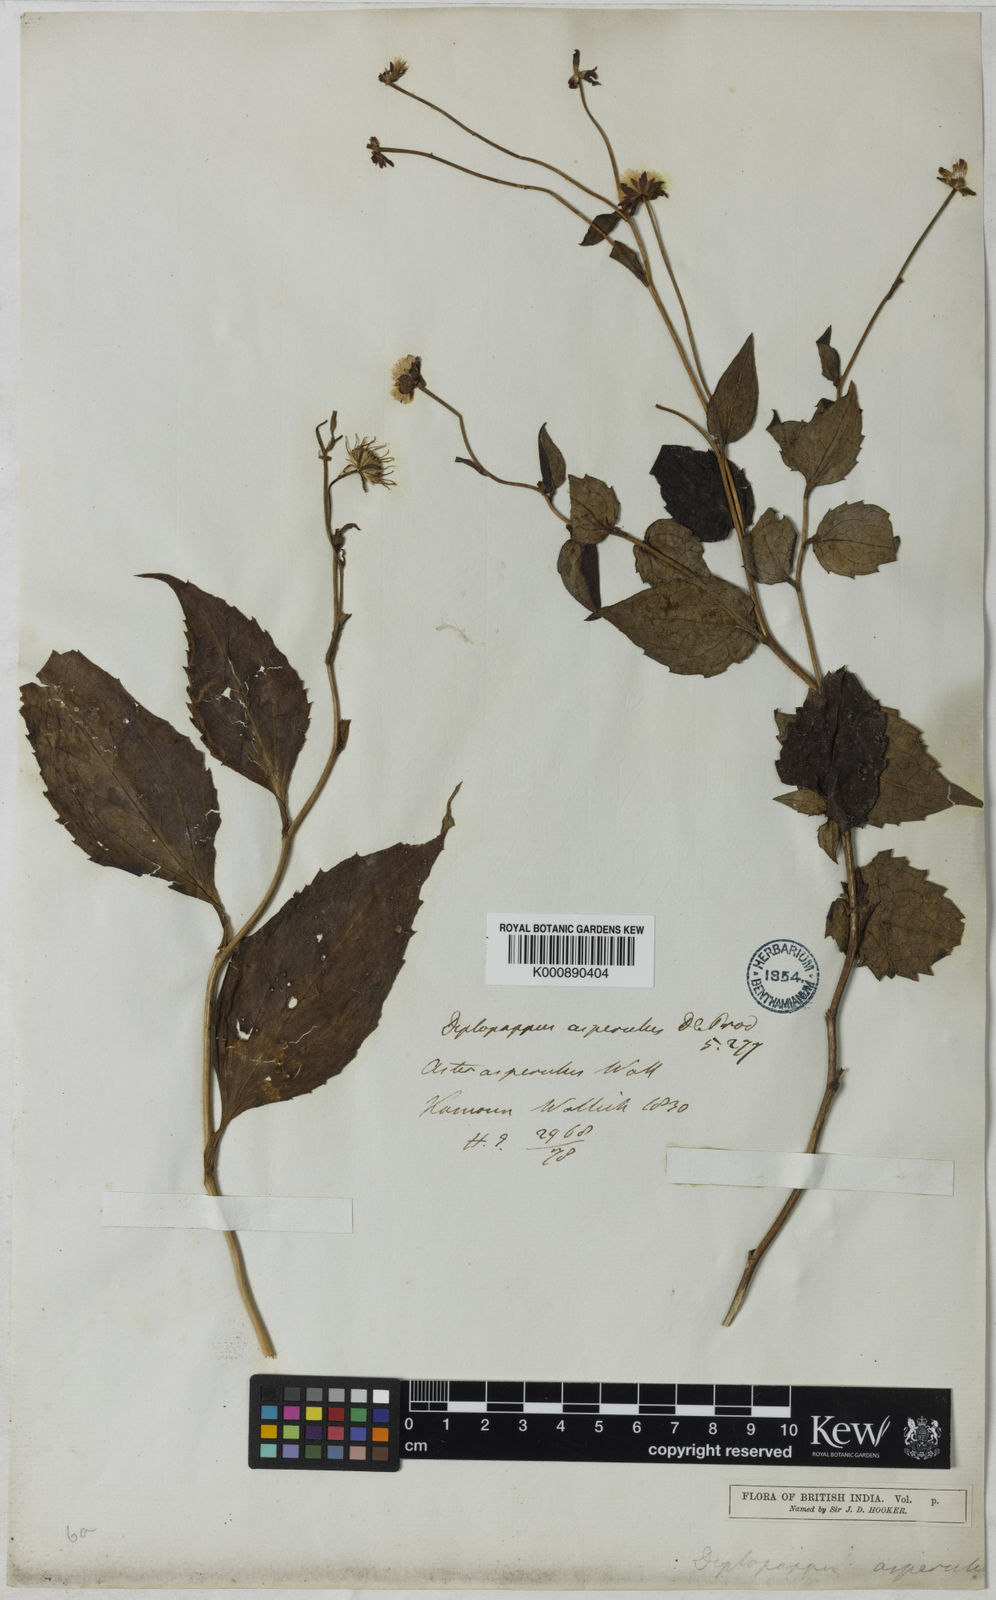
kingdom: Plantae
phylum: Tracheophyta
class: Magnoliopsida
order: Asterales
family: Asteraceae
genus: Aster
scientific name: Aster
